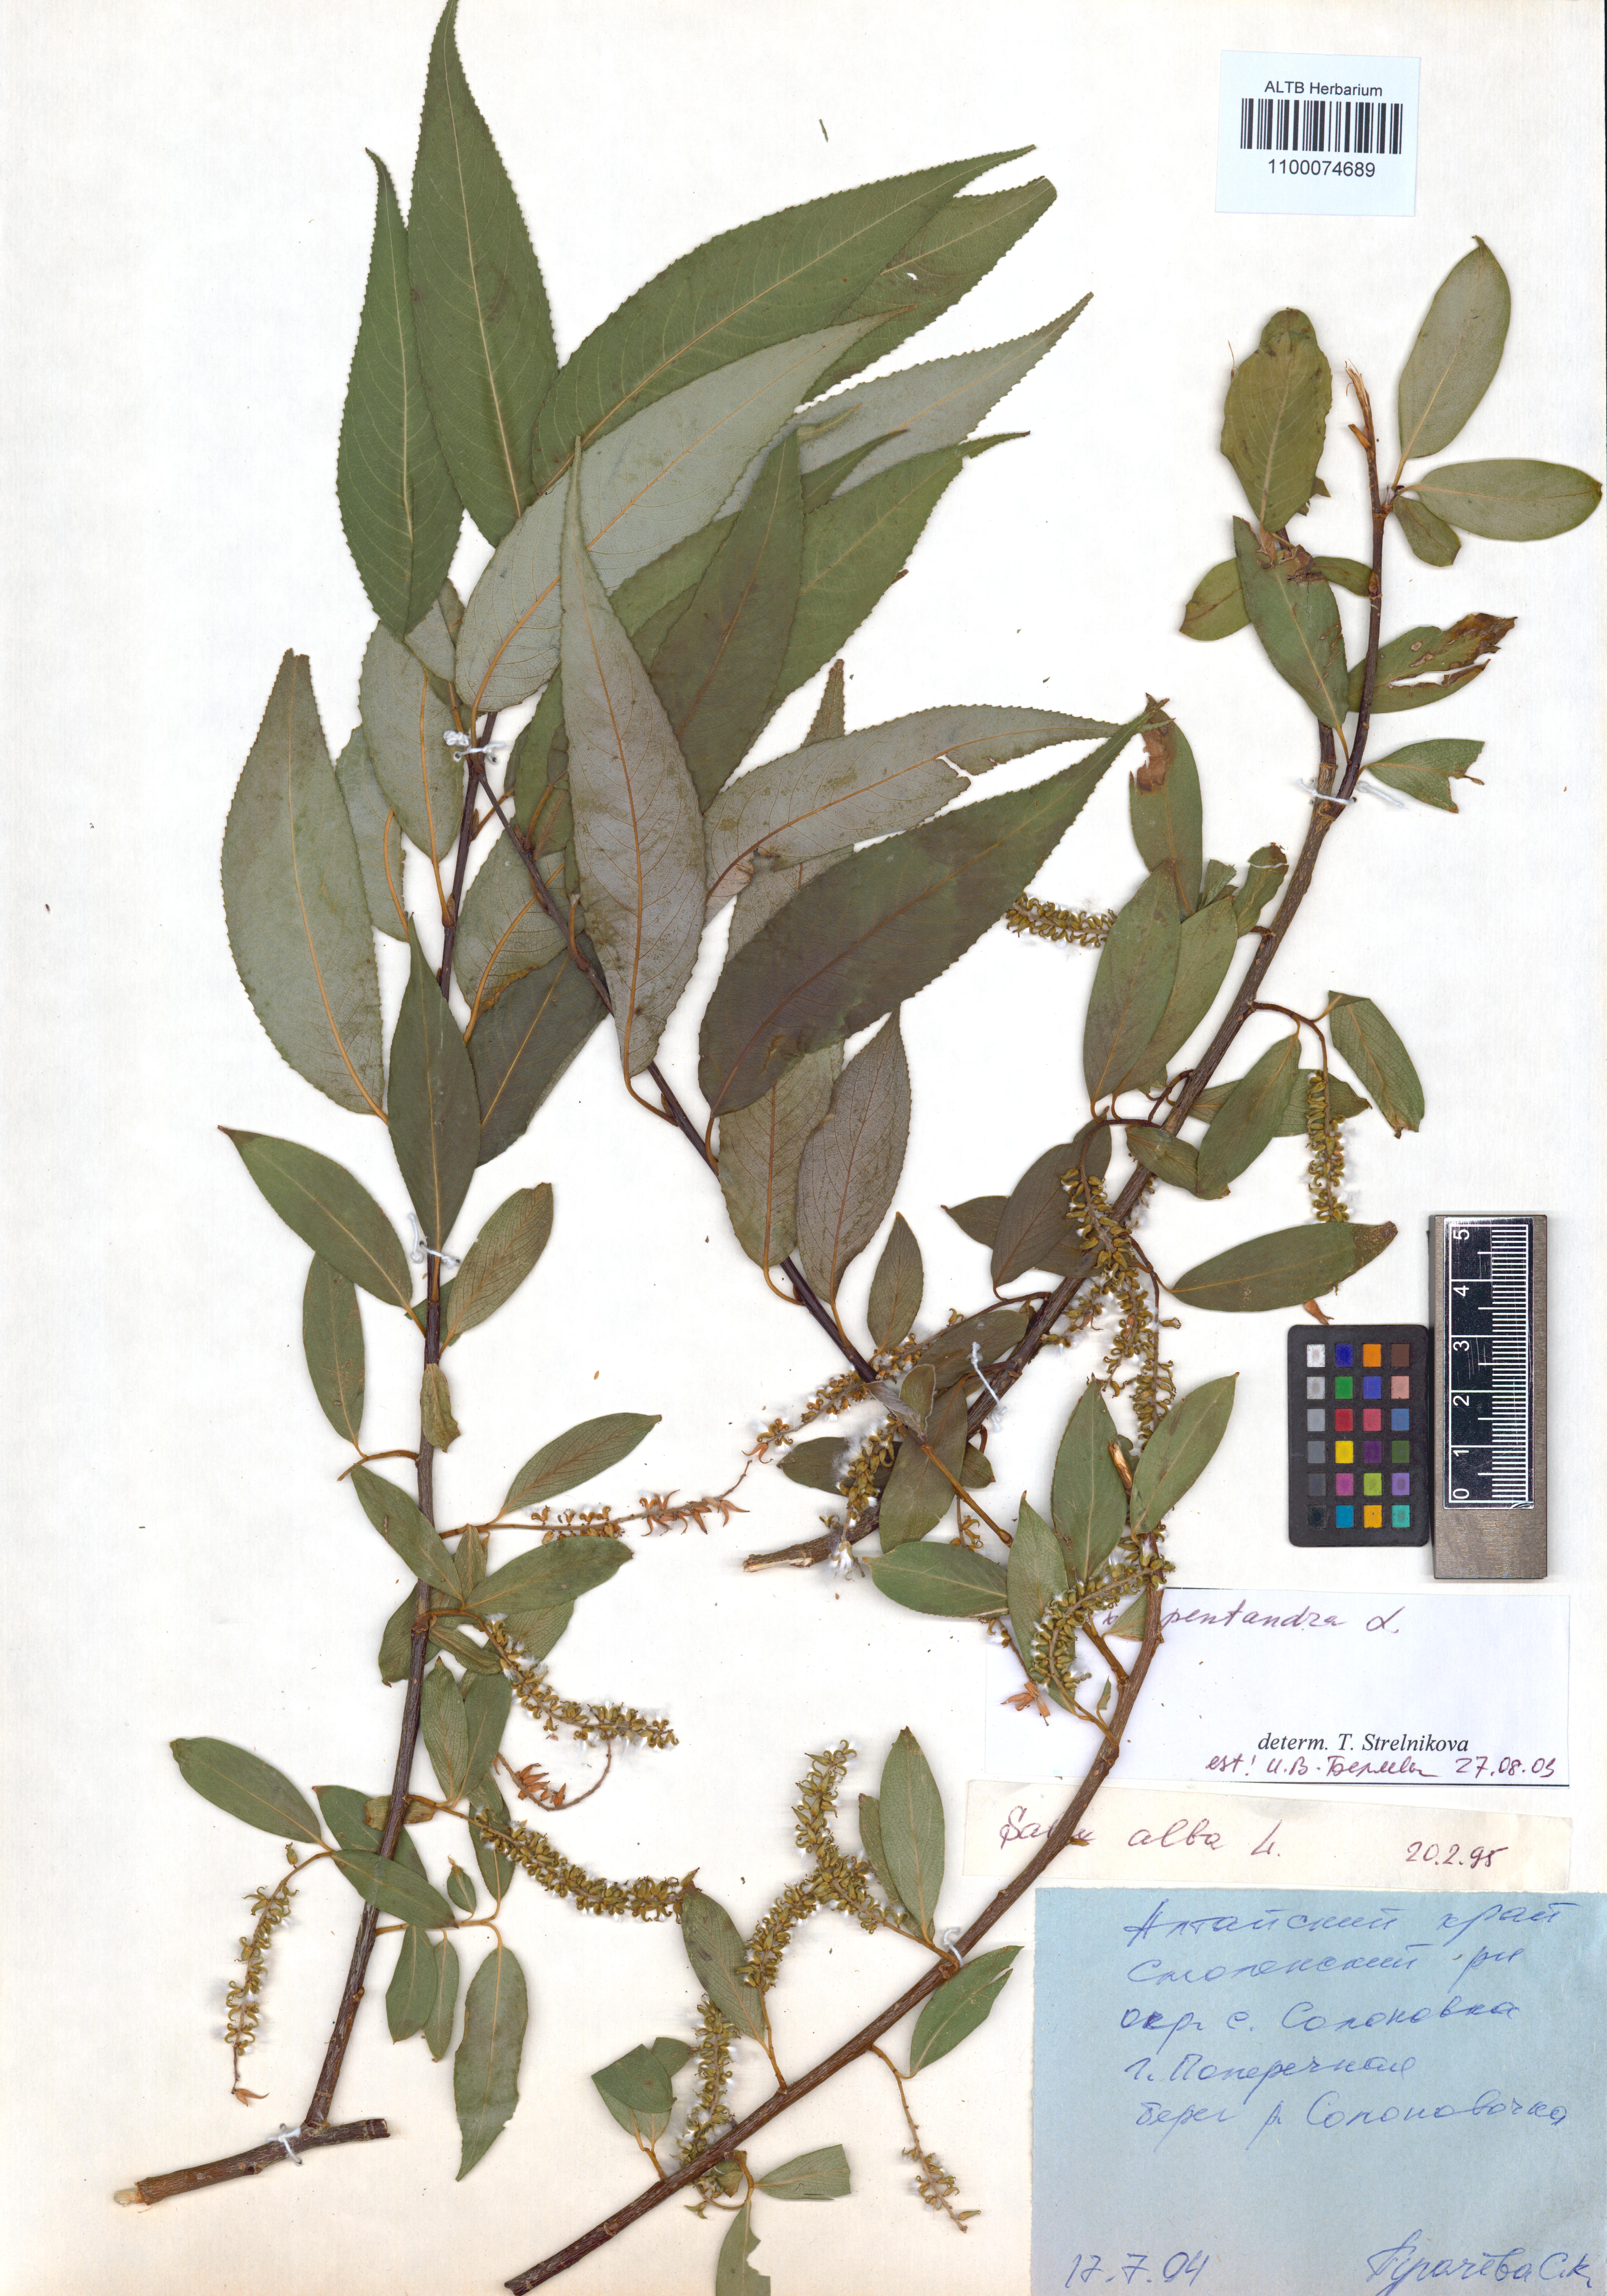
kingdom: Plantae
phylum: Tracheophyta
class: Magnoliopsida
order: Malpighiales
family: Salicaceae
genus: Salix
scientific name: Salix pentandra
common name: Bay willow
